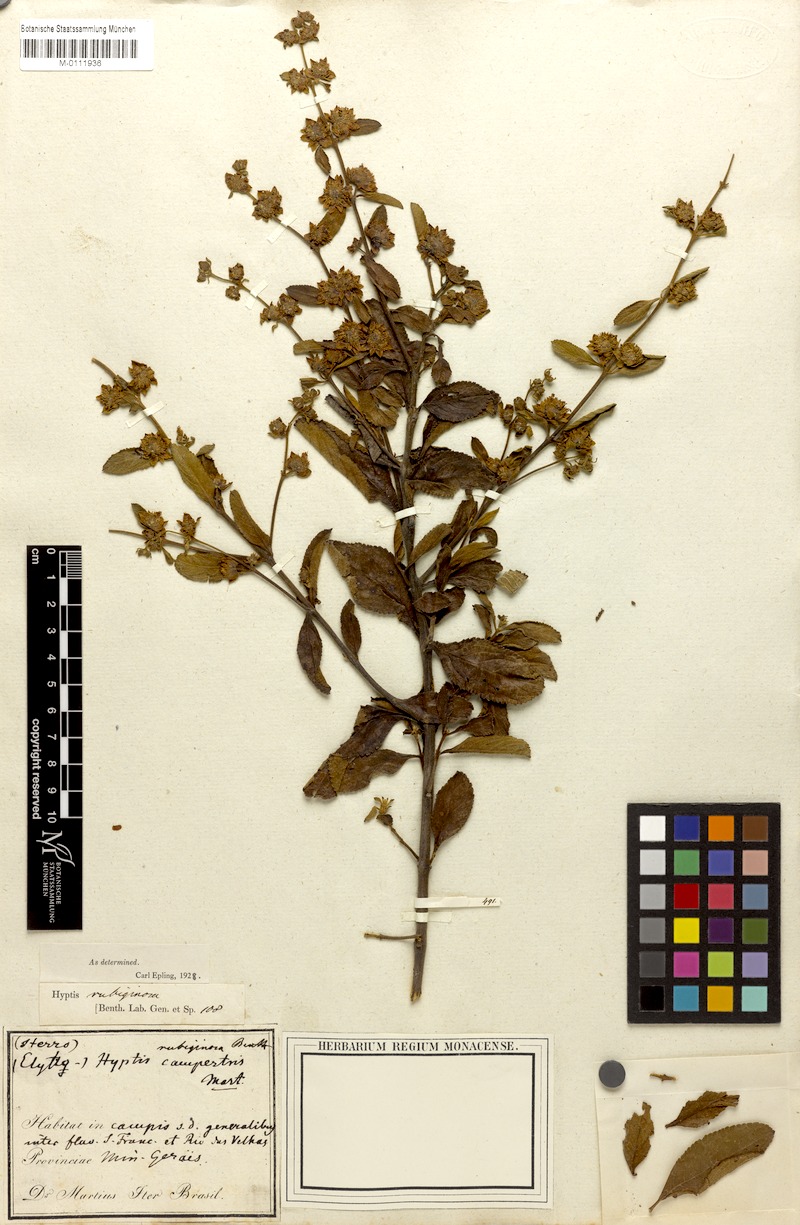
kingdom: Plantae
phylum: Tracheophyta
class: Magnoliopsida
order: Lamiales
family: Lamiaceae
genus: Hyptis
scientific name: Hyptis rubiginosa
